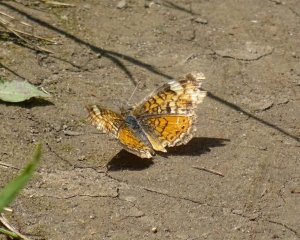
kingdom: Animalia
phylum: Arthropoda
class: Insecta
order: Lepidoptera
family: Nymphalidae
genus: Phyciodes
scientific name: Phyciodes tharos
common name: Northern Crescent
